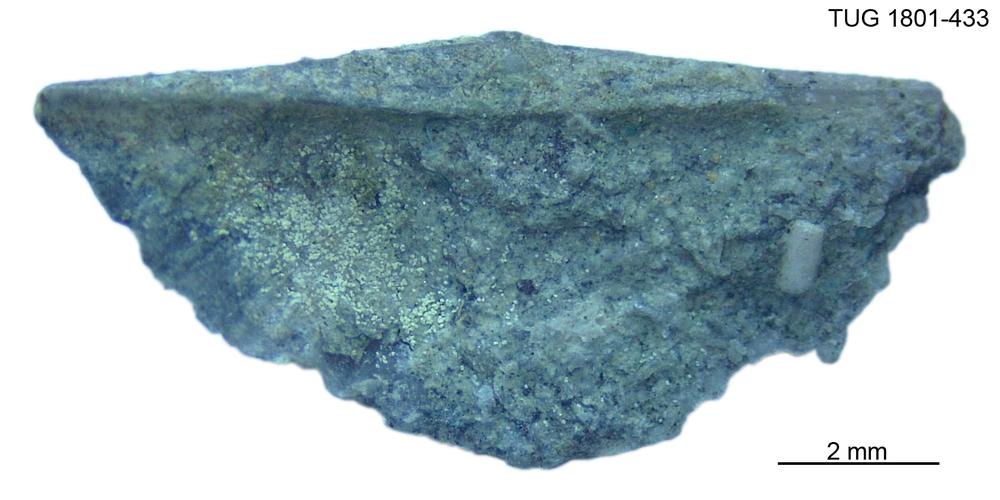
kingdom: Animalia
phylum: Brachiopoda
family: Oldhaminidae
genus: Eoplectodonta
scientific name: Eoplectodonta
